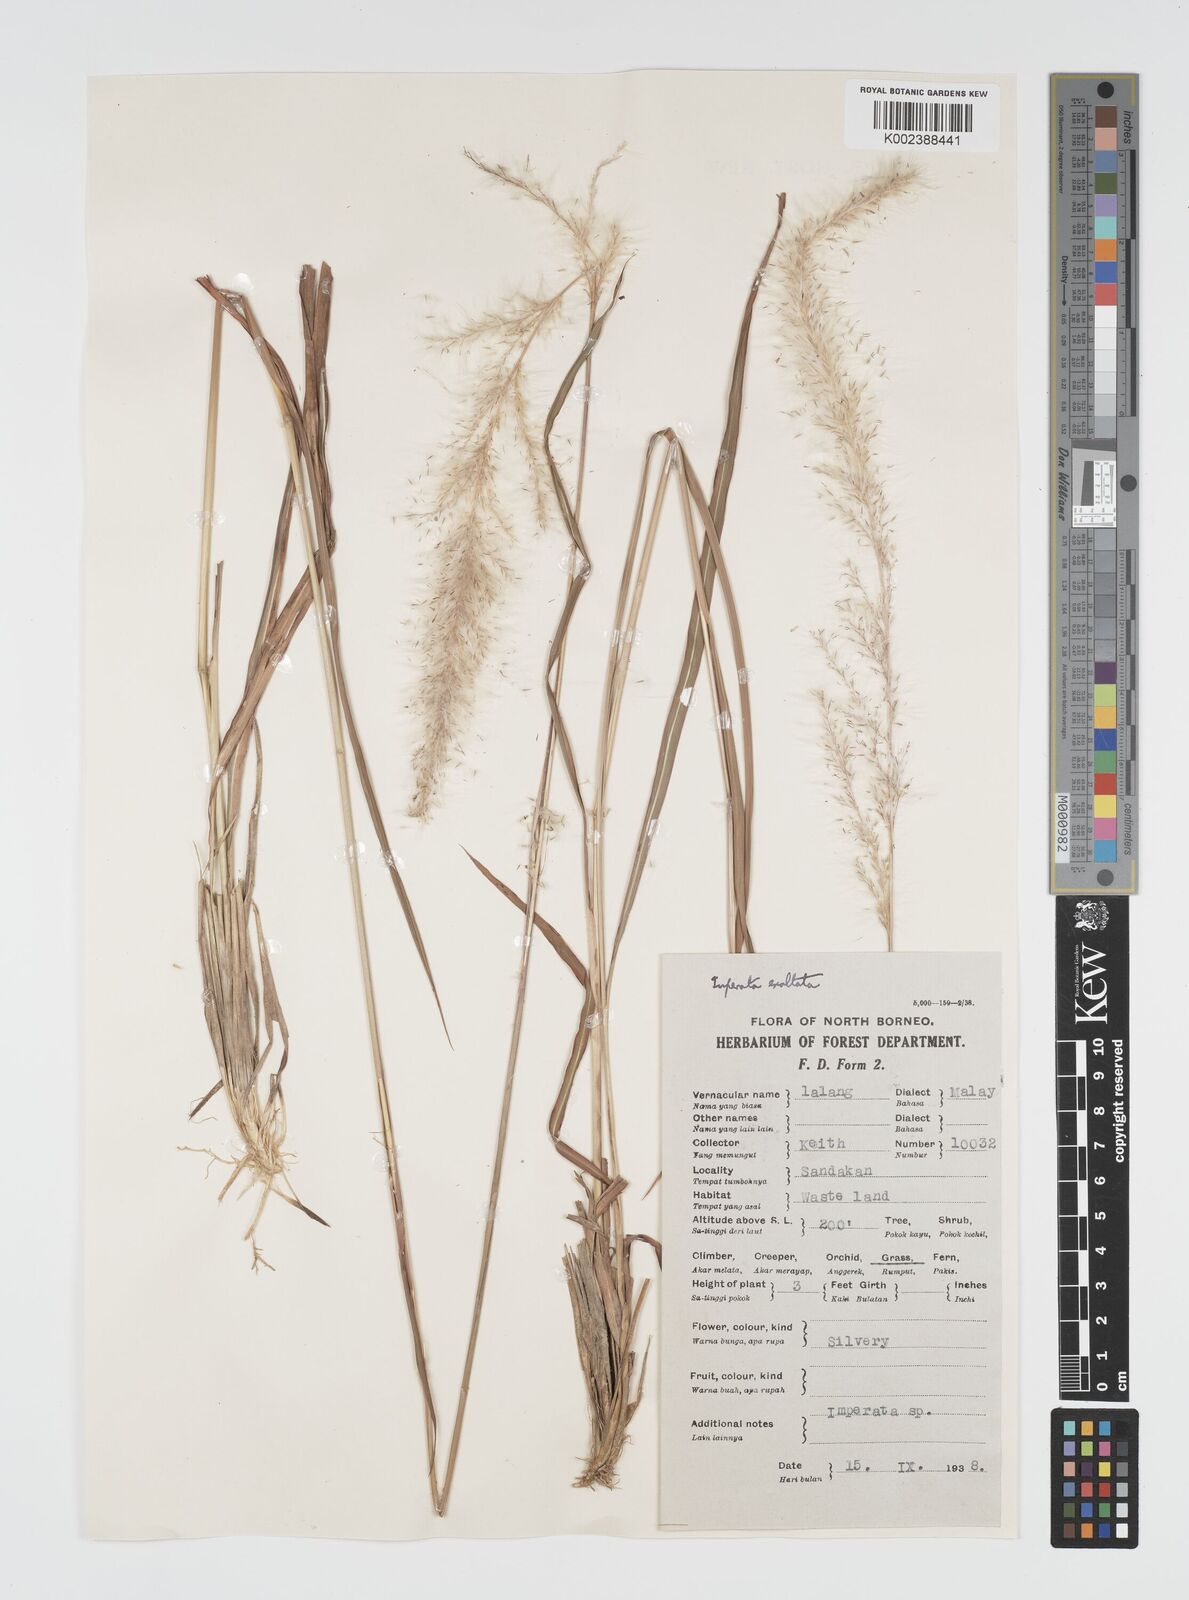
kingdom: Plantae
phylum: Tracheophyta
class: Liliopsida
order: Poales
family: Poaceae
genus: Imperata
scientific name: Imperata conferta
